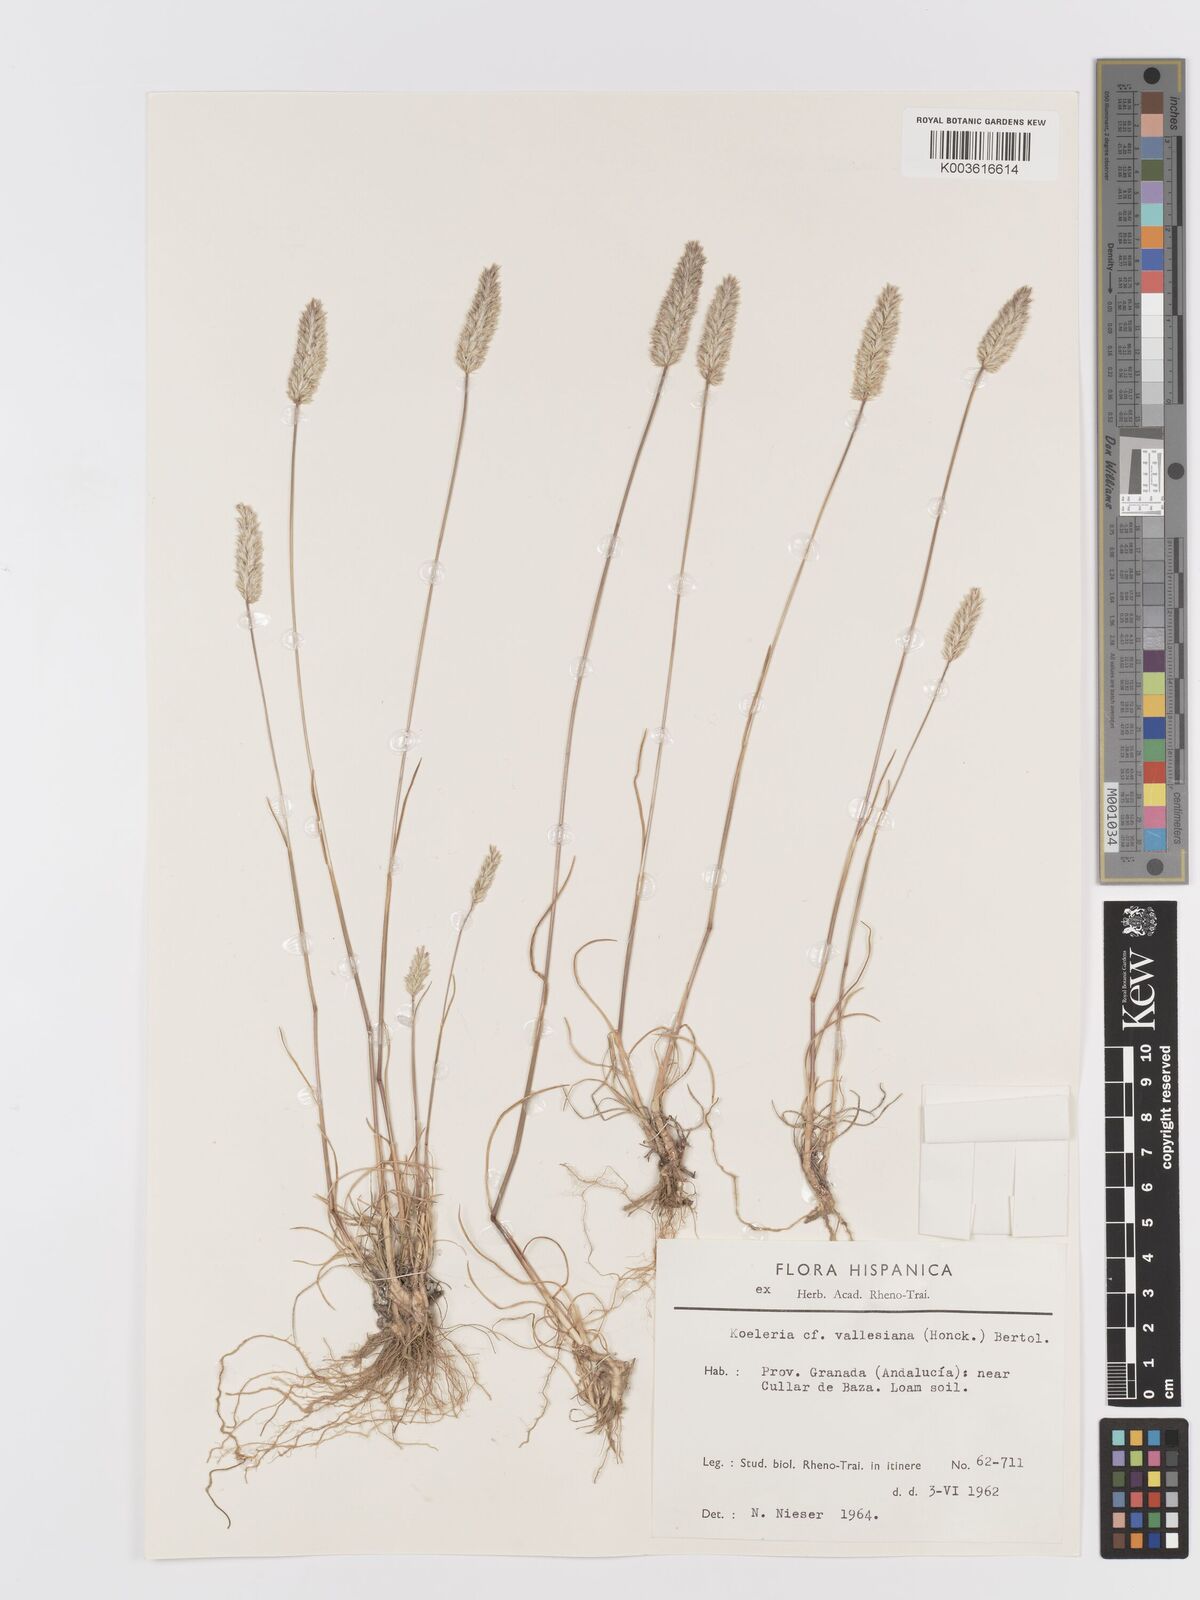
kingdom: Plantae
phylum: Tracheophyta
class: Liliopsida
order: Poales
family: Poaceae
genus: Koeleria
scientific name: Koeleria vallesiana
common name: Somerset hair-grass
